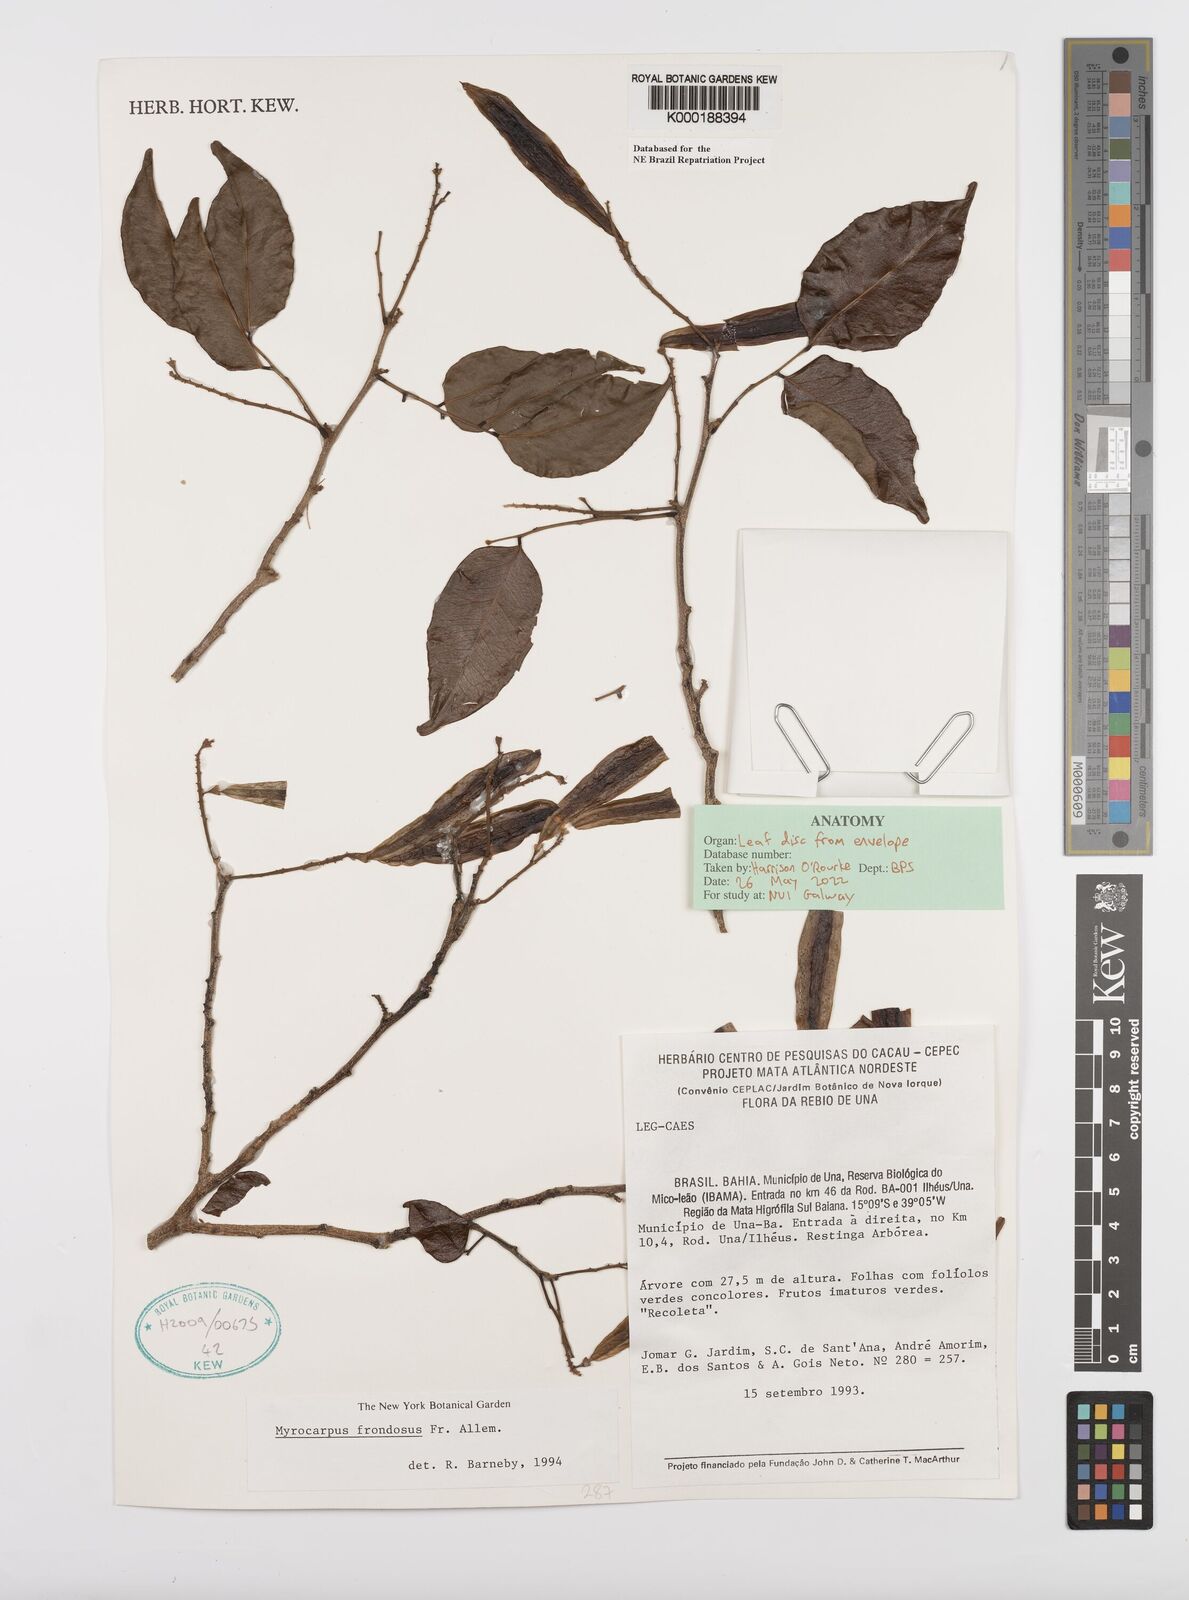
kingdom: Plantae
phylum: Tracheophyta
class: Magnoliopsida
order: Fabales
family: Fabaceae
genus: Myrocarpus
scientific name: Myrocarpus frondosus
